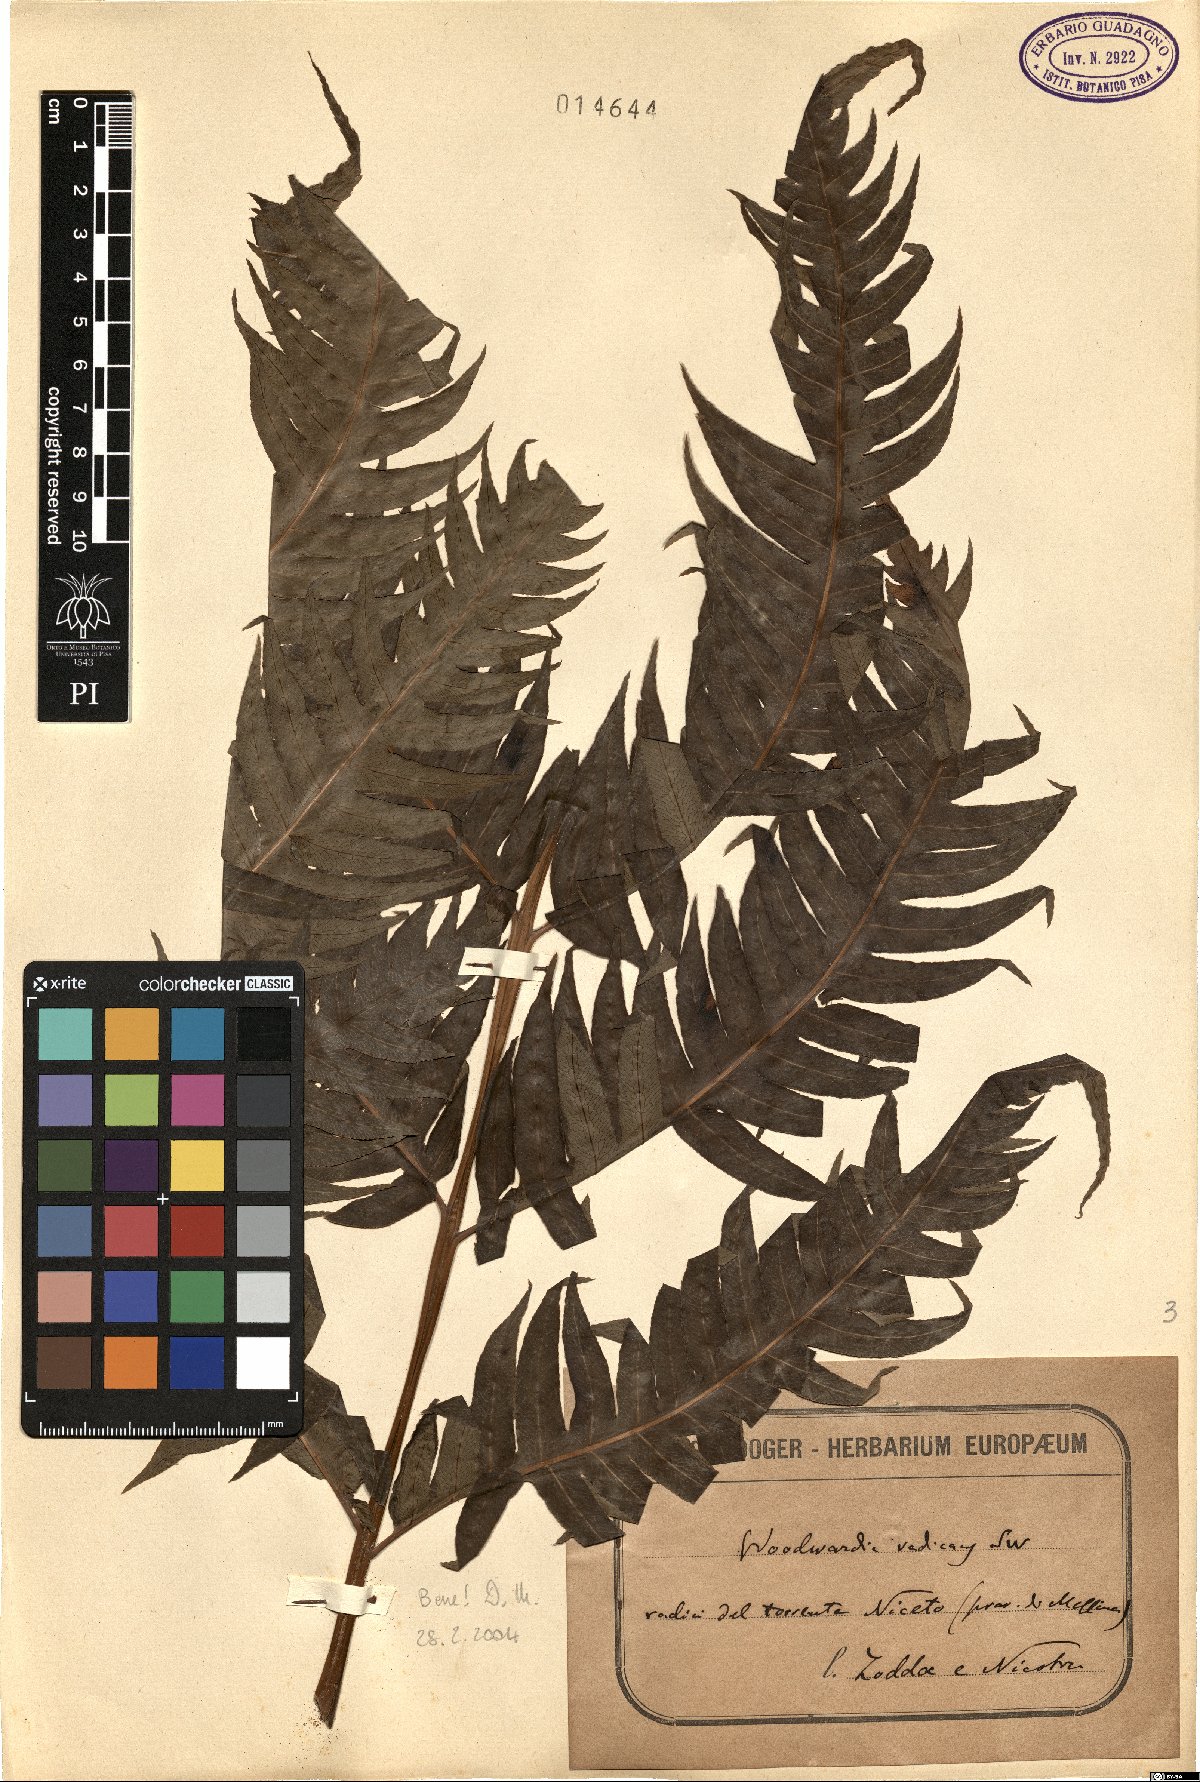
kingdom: Plantae
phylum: Tracheophyta
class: Polypodiopsida
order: Polypodiales
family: Blechnaceae
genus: Woodwardia
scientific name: Woodwardia radicans
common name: Rooting chainfern
